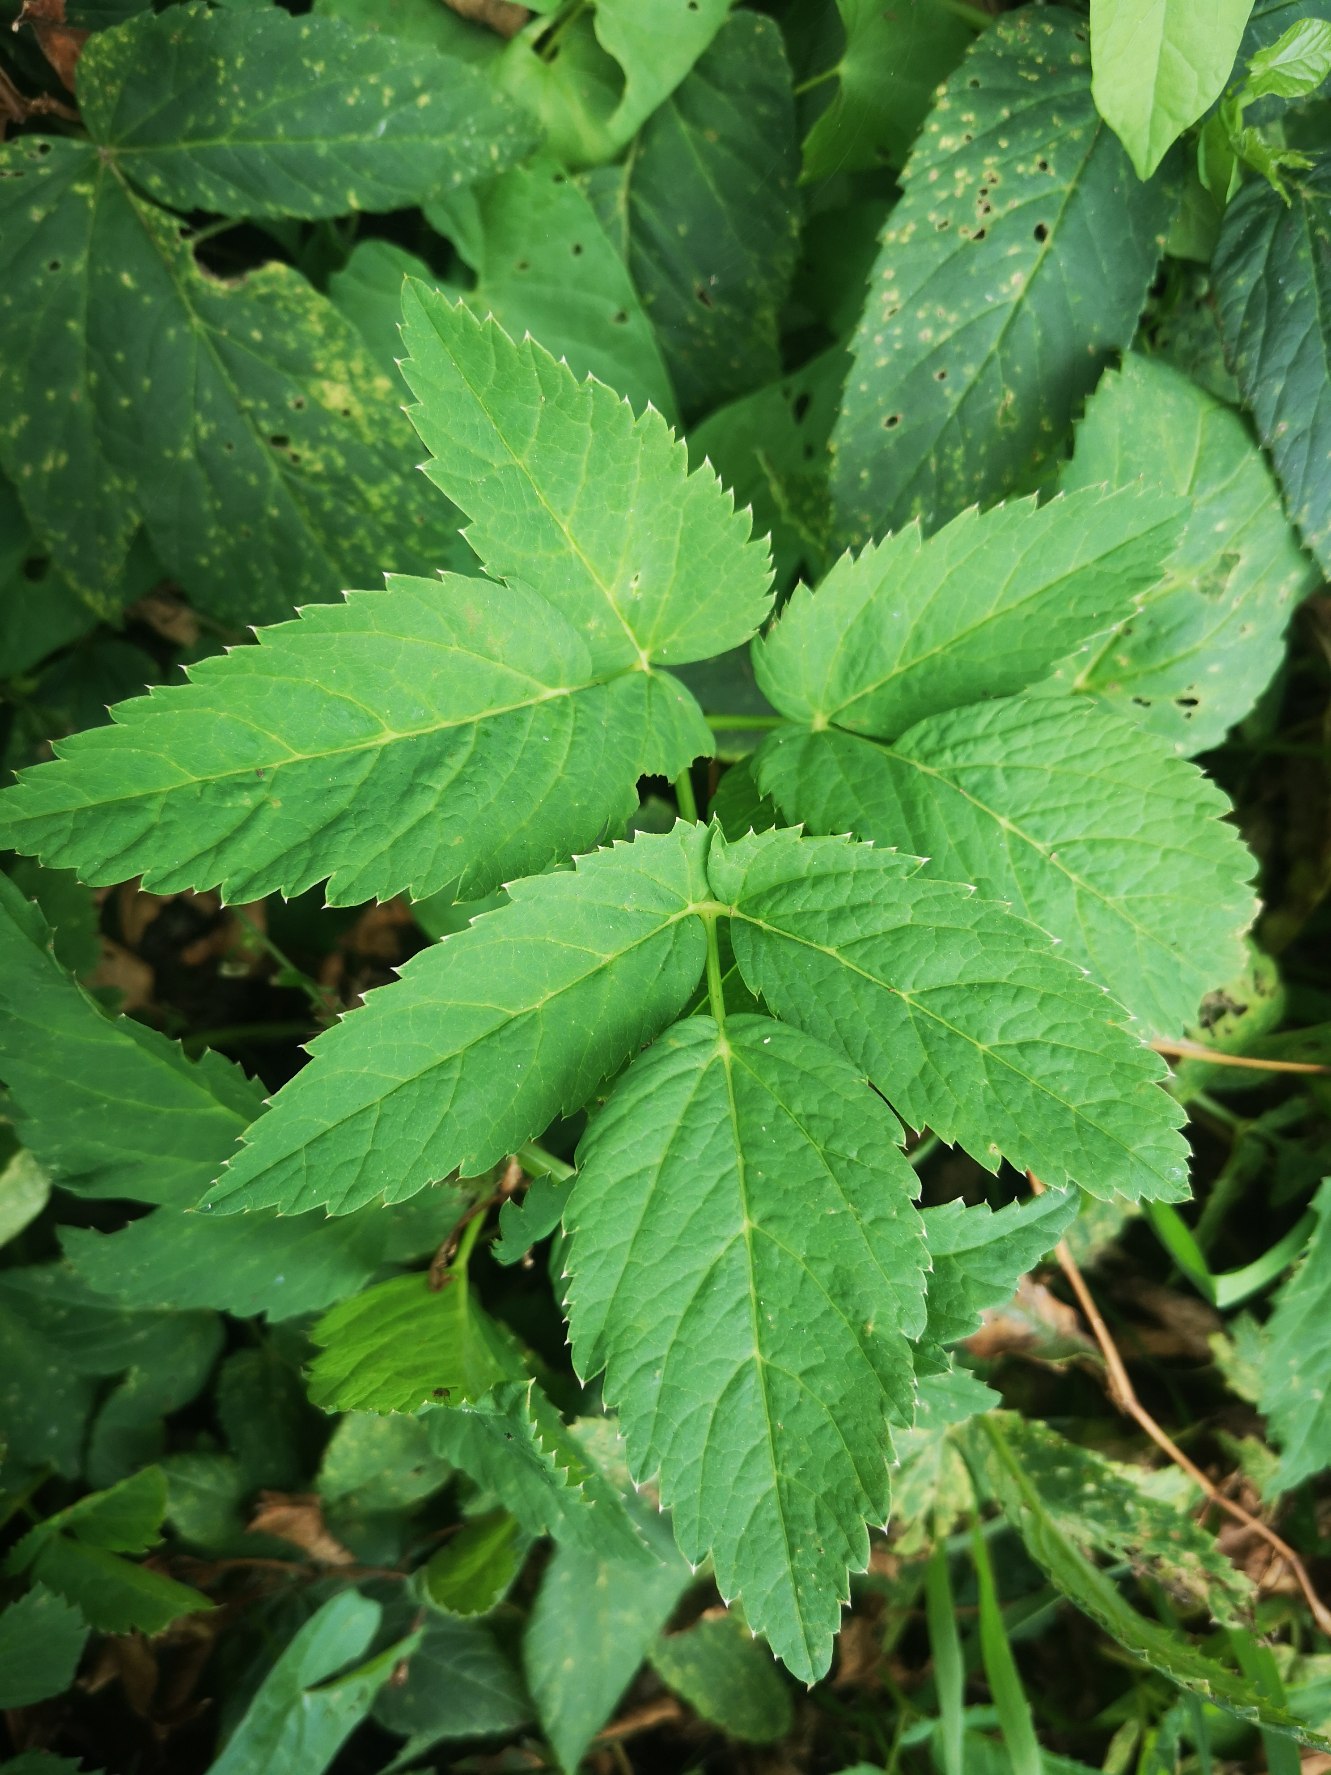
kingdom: Plantae
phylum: Tracheophyta
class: Magnoliopsida
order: Apiales
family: Apiaceae
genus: Aegopodium
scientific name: Aegopodium podagraria
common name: Skvalderkål
